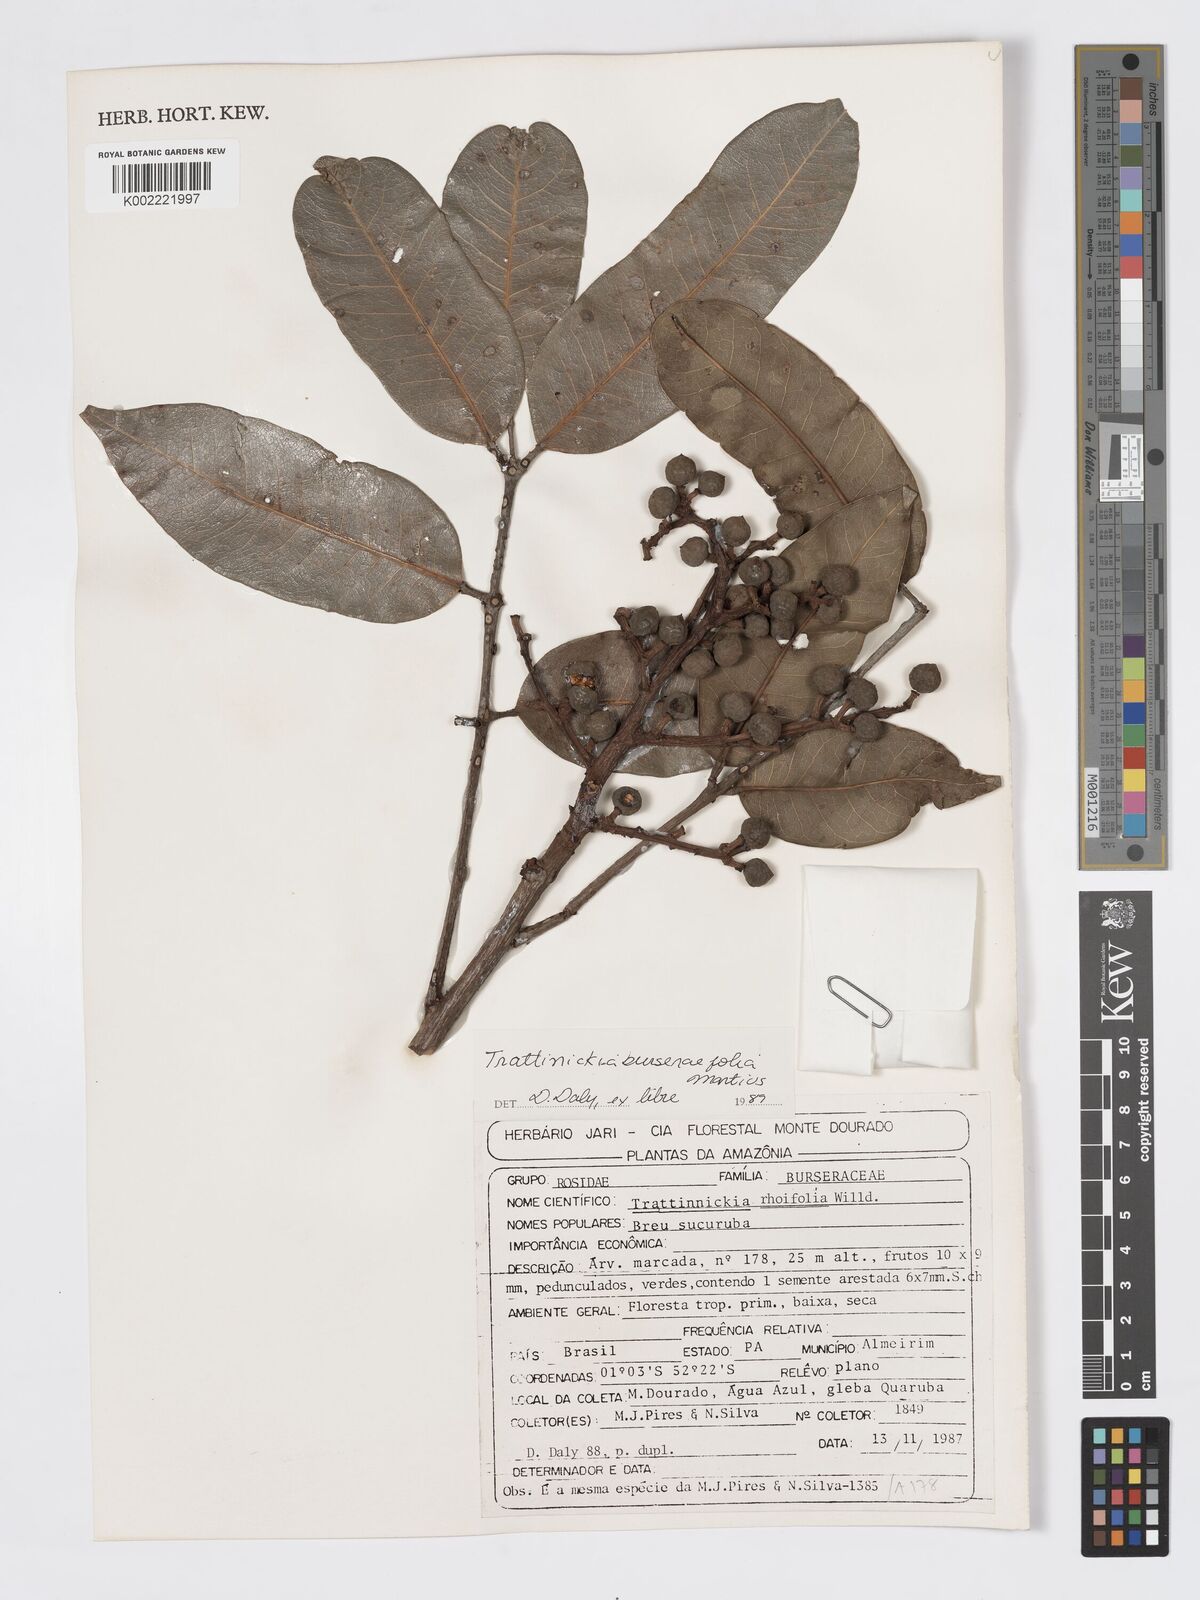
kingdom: Plantae
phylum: Tracheophyta
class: Magnoliopsida
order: Sapindales
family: Burseraceae
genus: Trattinnickia
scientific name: Trattinnickia burserifolia
